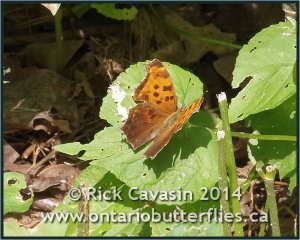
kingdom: Animalia
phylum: Arthropoda
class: Insecta
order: Lepidoptera
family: Nymphalidae
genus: Polygonia
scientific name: Polygonia comma
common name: Eastern Comma
